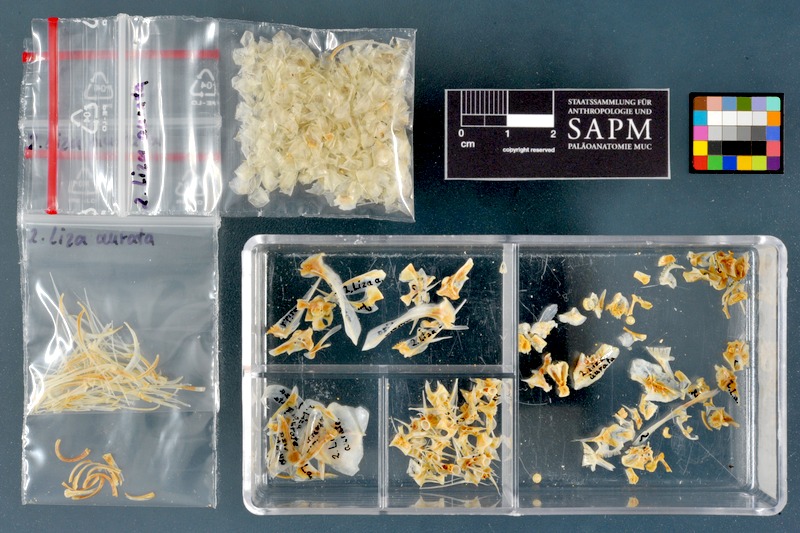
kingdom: Animalia
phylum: Chordata
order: Mugiliformes
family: Mugilidae
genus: Chelon
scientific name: Chelon auratus
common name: Golden grey mullet
